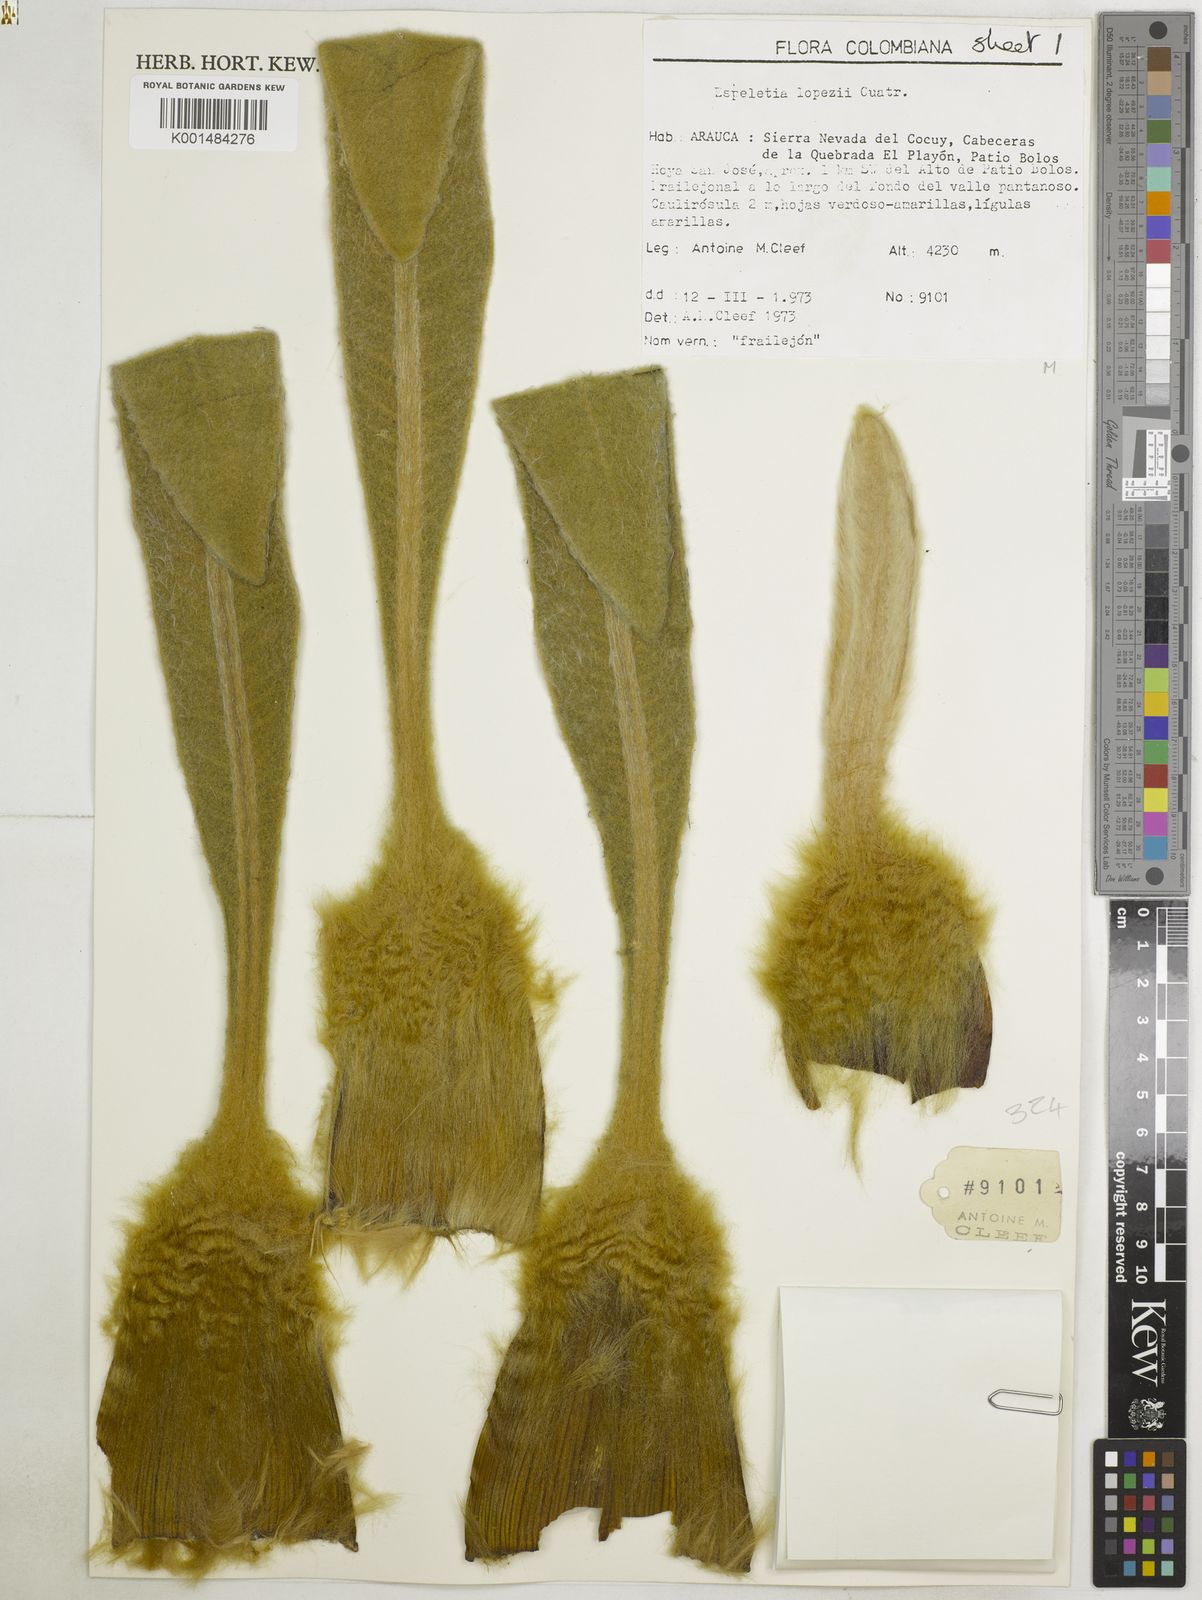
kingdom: Plantae
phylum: Tracheophyta
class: Magnoliopsida
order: Asterales
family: Asteraceae
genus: Espeletia
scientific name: Espeletia lopezii
